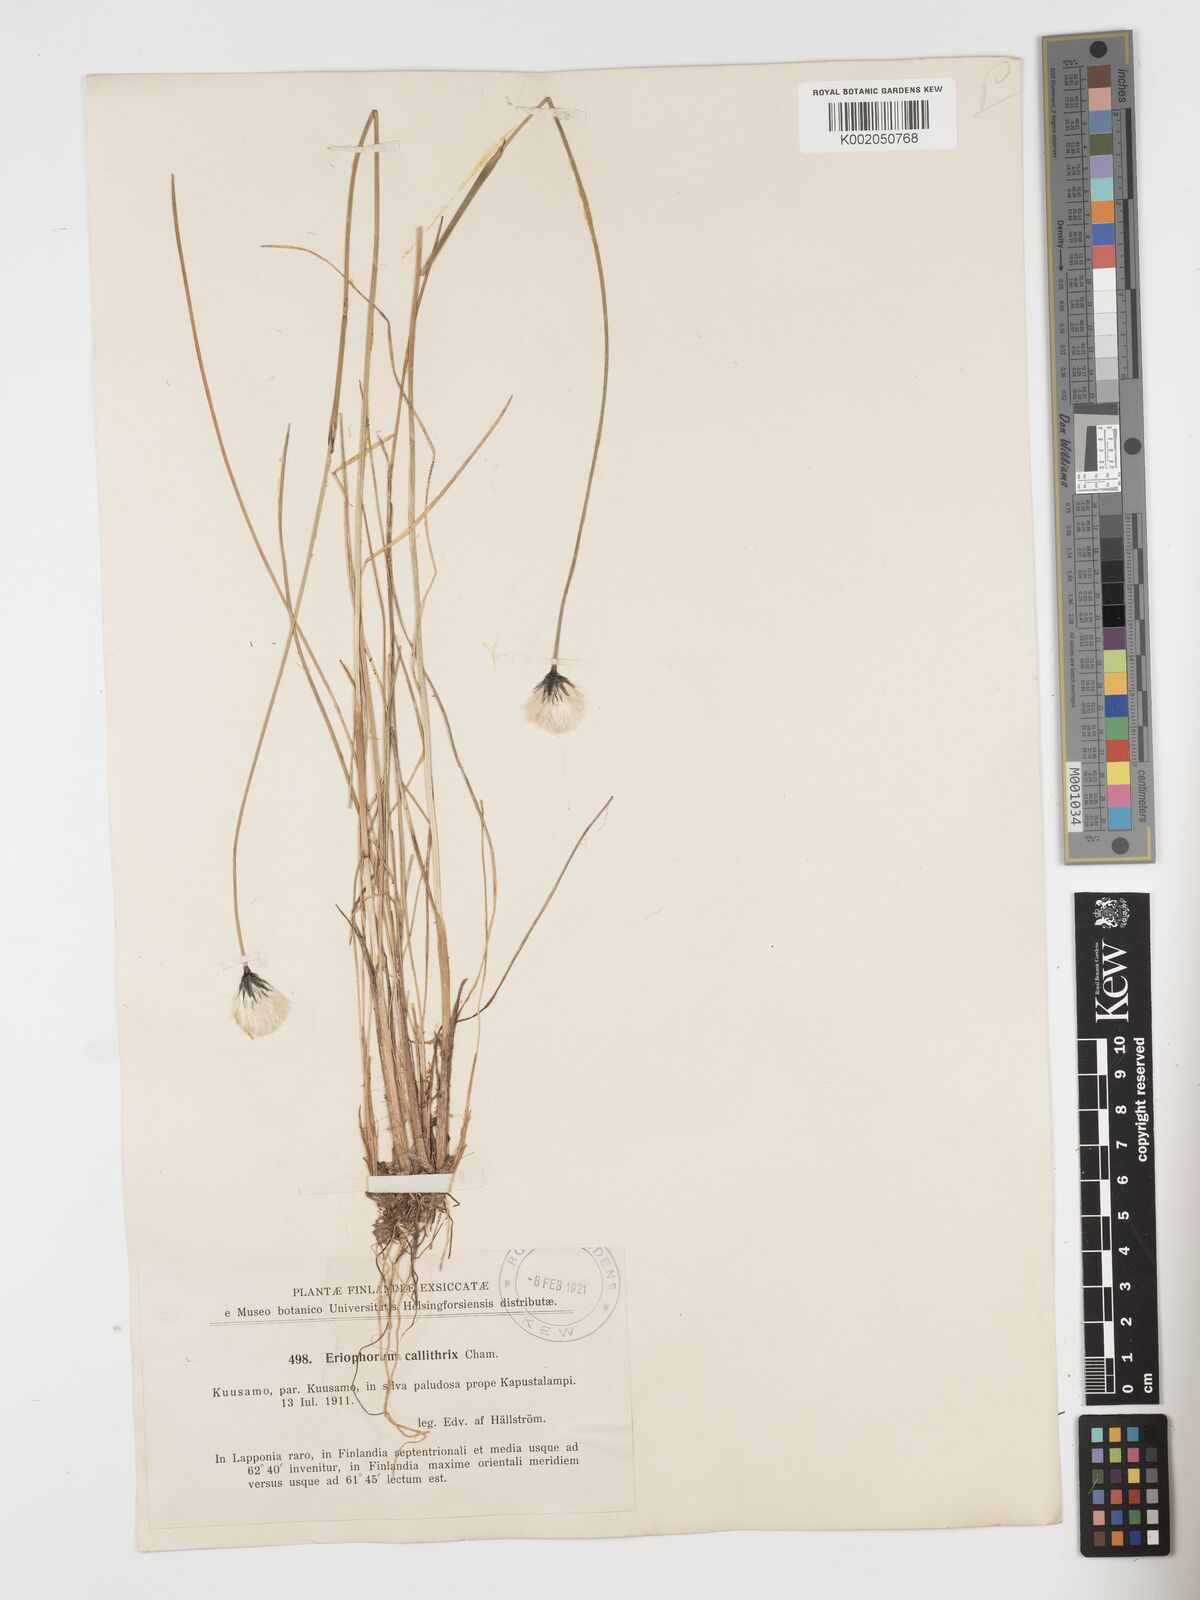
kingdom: Plantae
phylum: Tracheophyta
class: Liliopsida
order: Poales
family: Cyperaceae
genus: Eriophorum
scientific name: Eriophorum brachyantherum
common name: Closed-sheathed cottongrass
